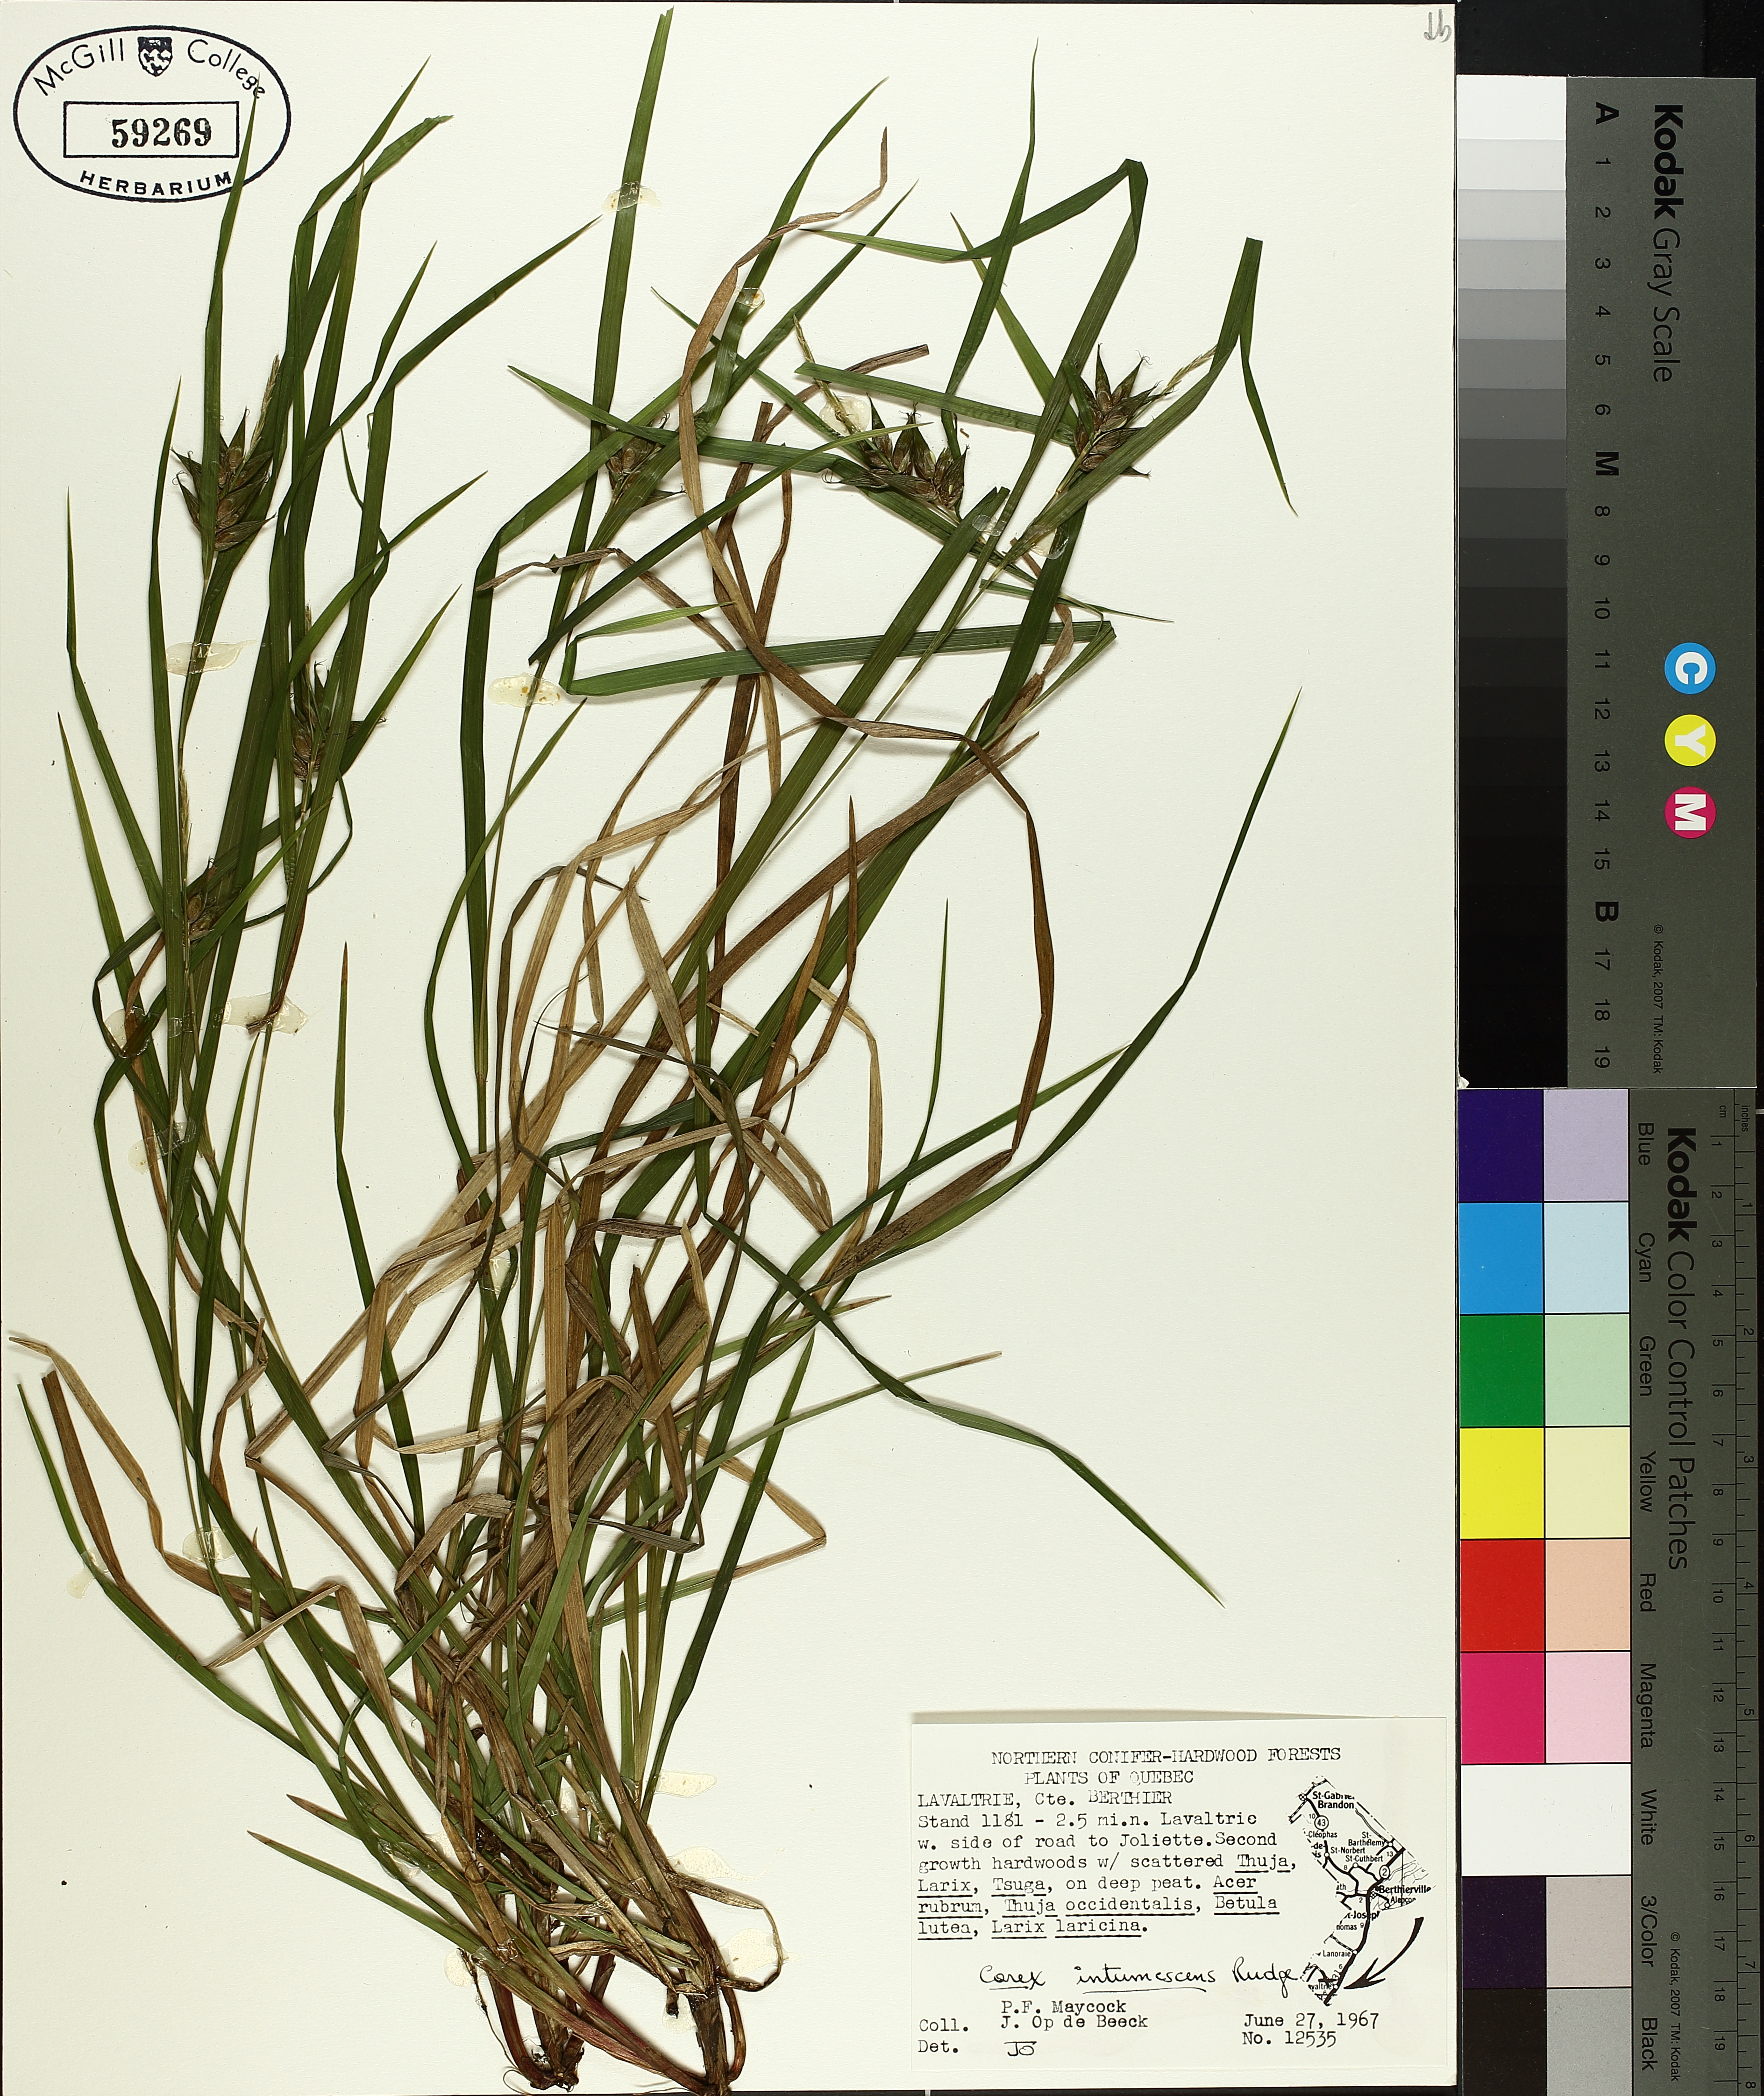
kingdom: Plantae
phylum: Tracheophyta
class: Liliopsida
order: Poales
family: Cyperaceae
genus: Carex
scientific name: Carex intumescens
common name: Greater bladder sedge
